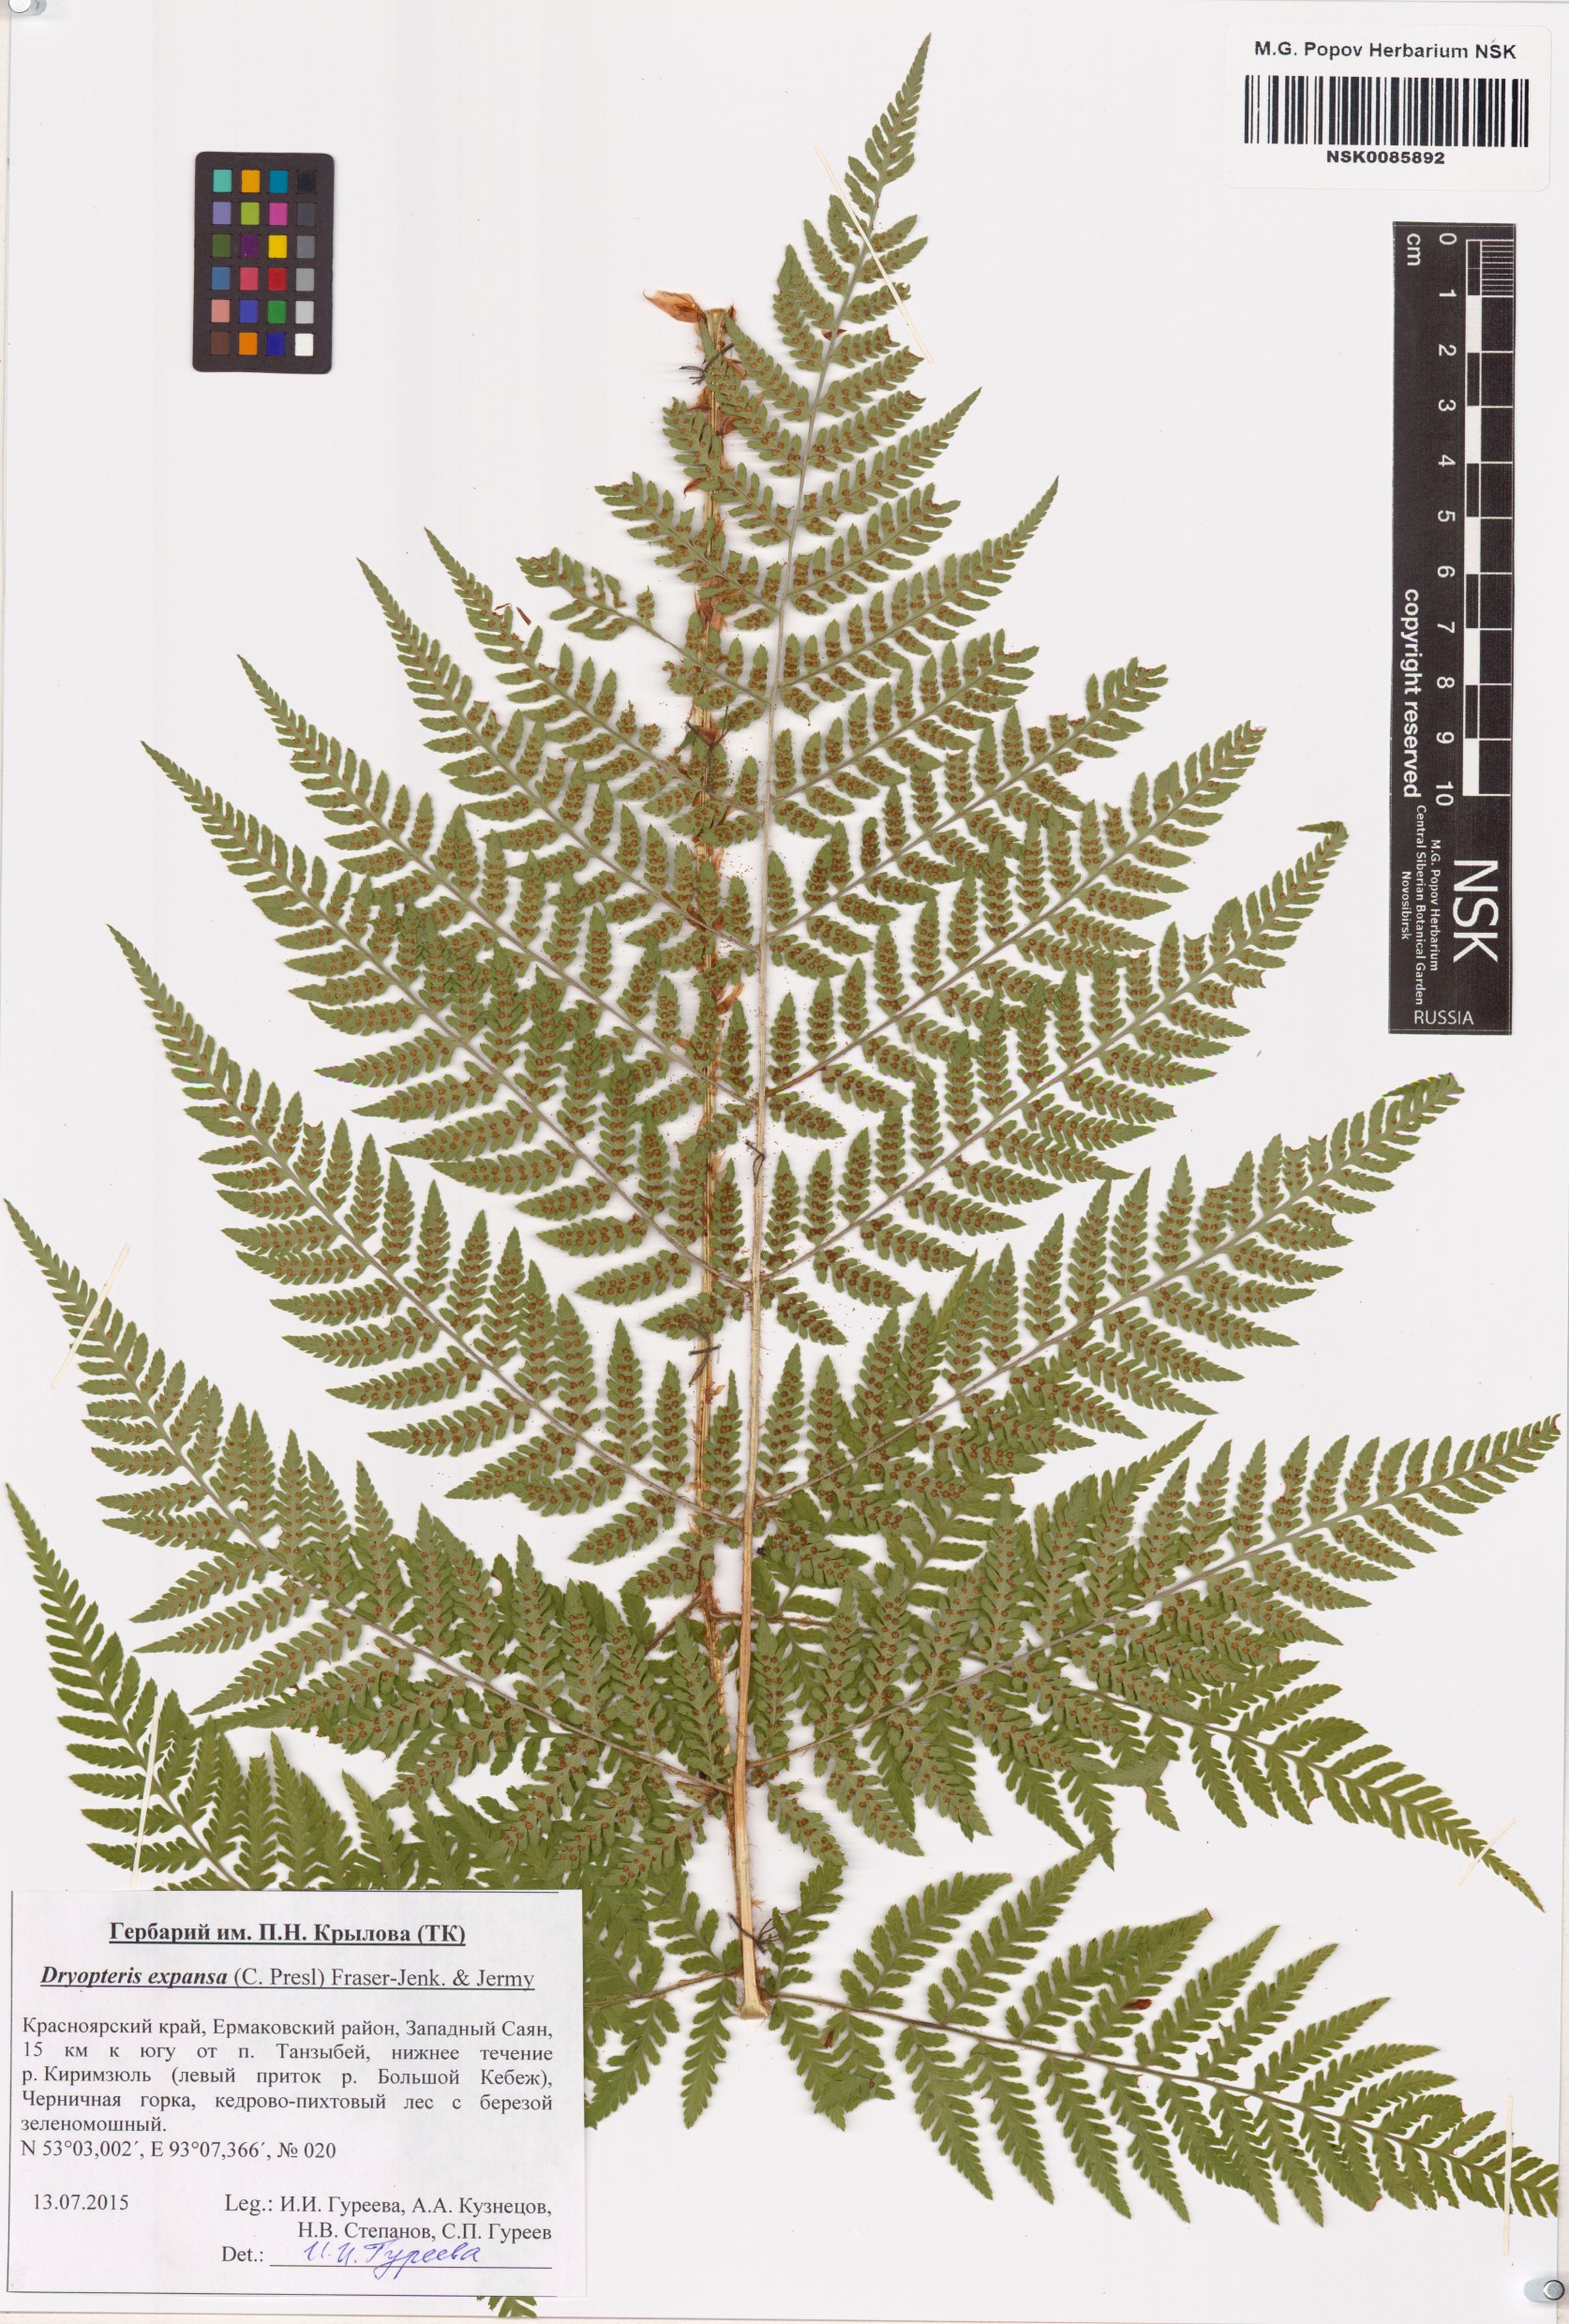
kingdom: Plantae
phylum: Tracheophyta
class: Polypodiopsida
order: Polypodiales
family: Dryopteridaceae
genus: Dryopteris
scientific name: Dryopteris expansa
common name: Northern buckler fern
